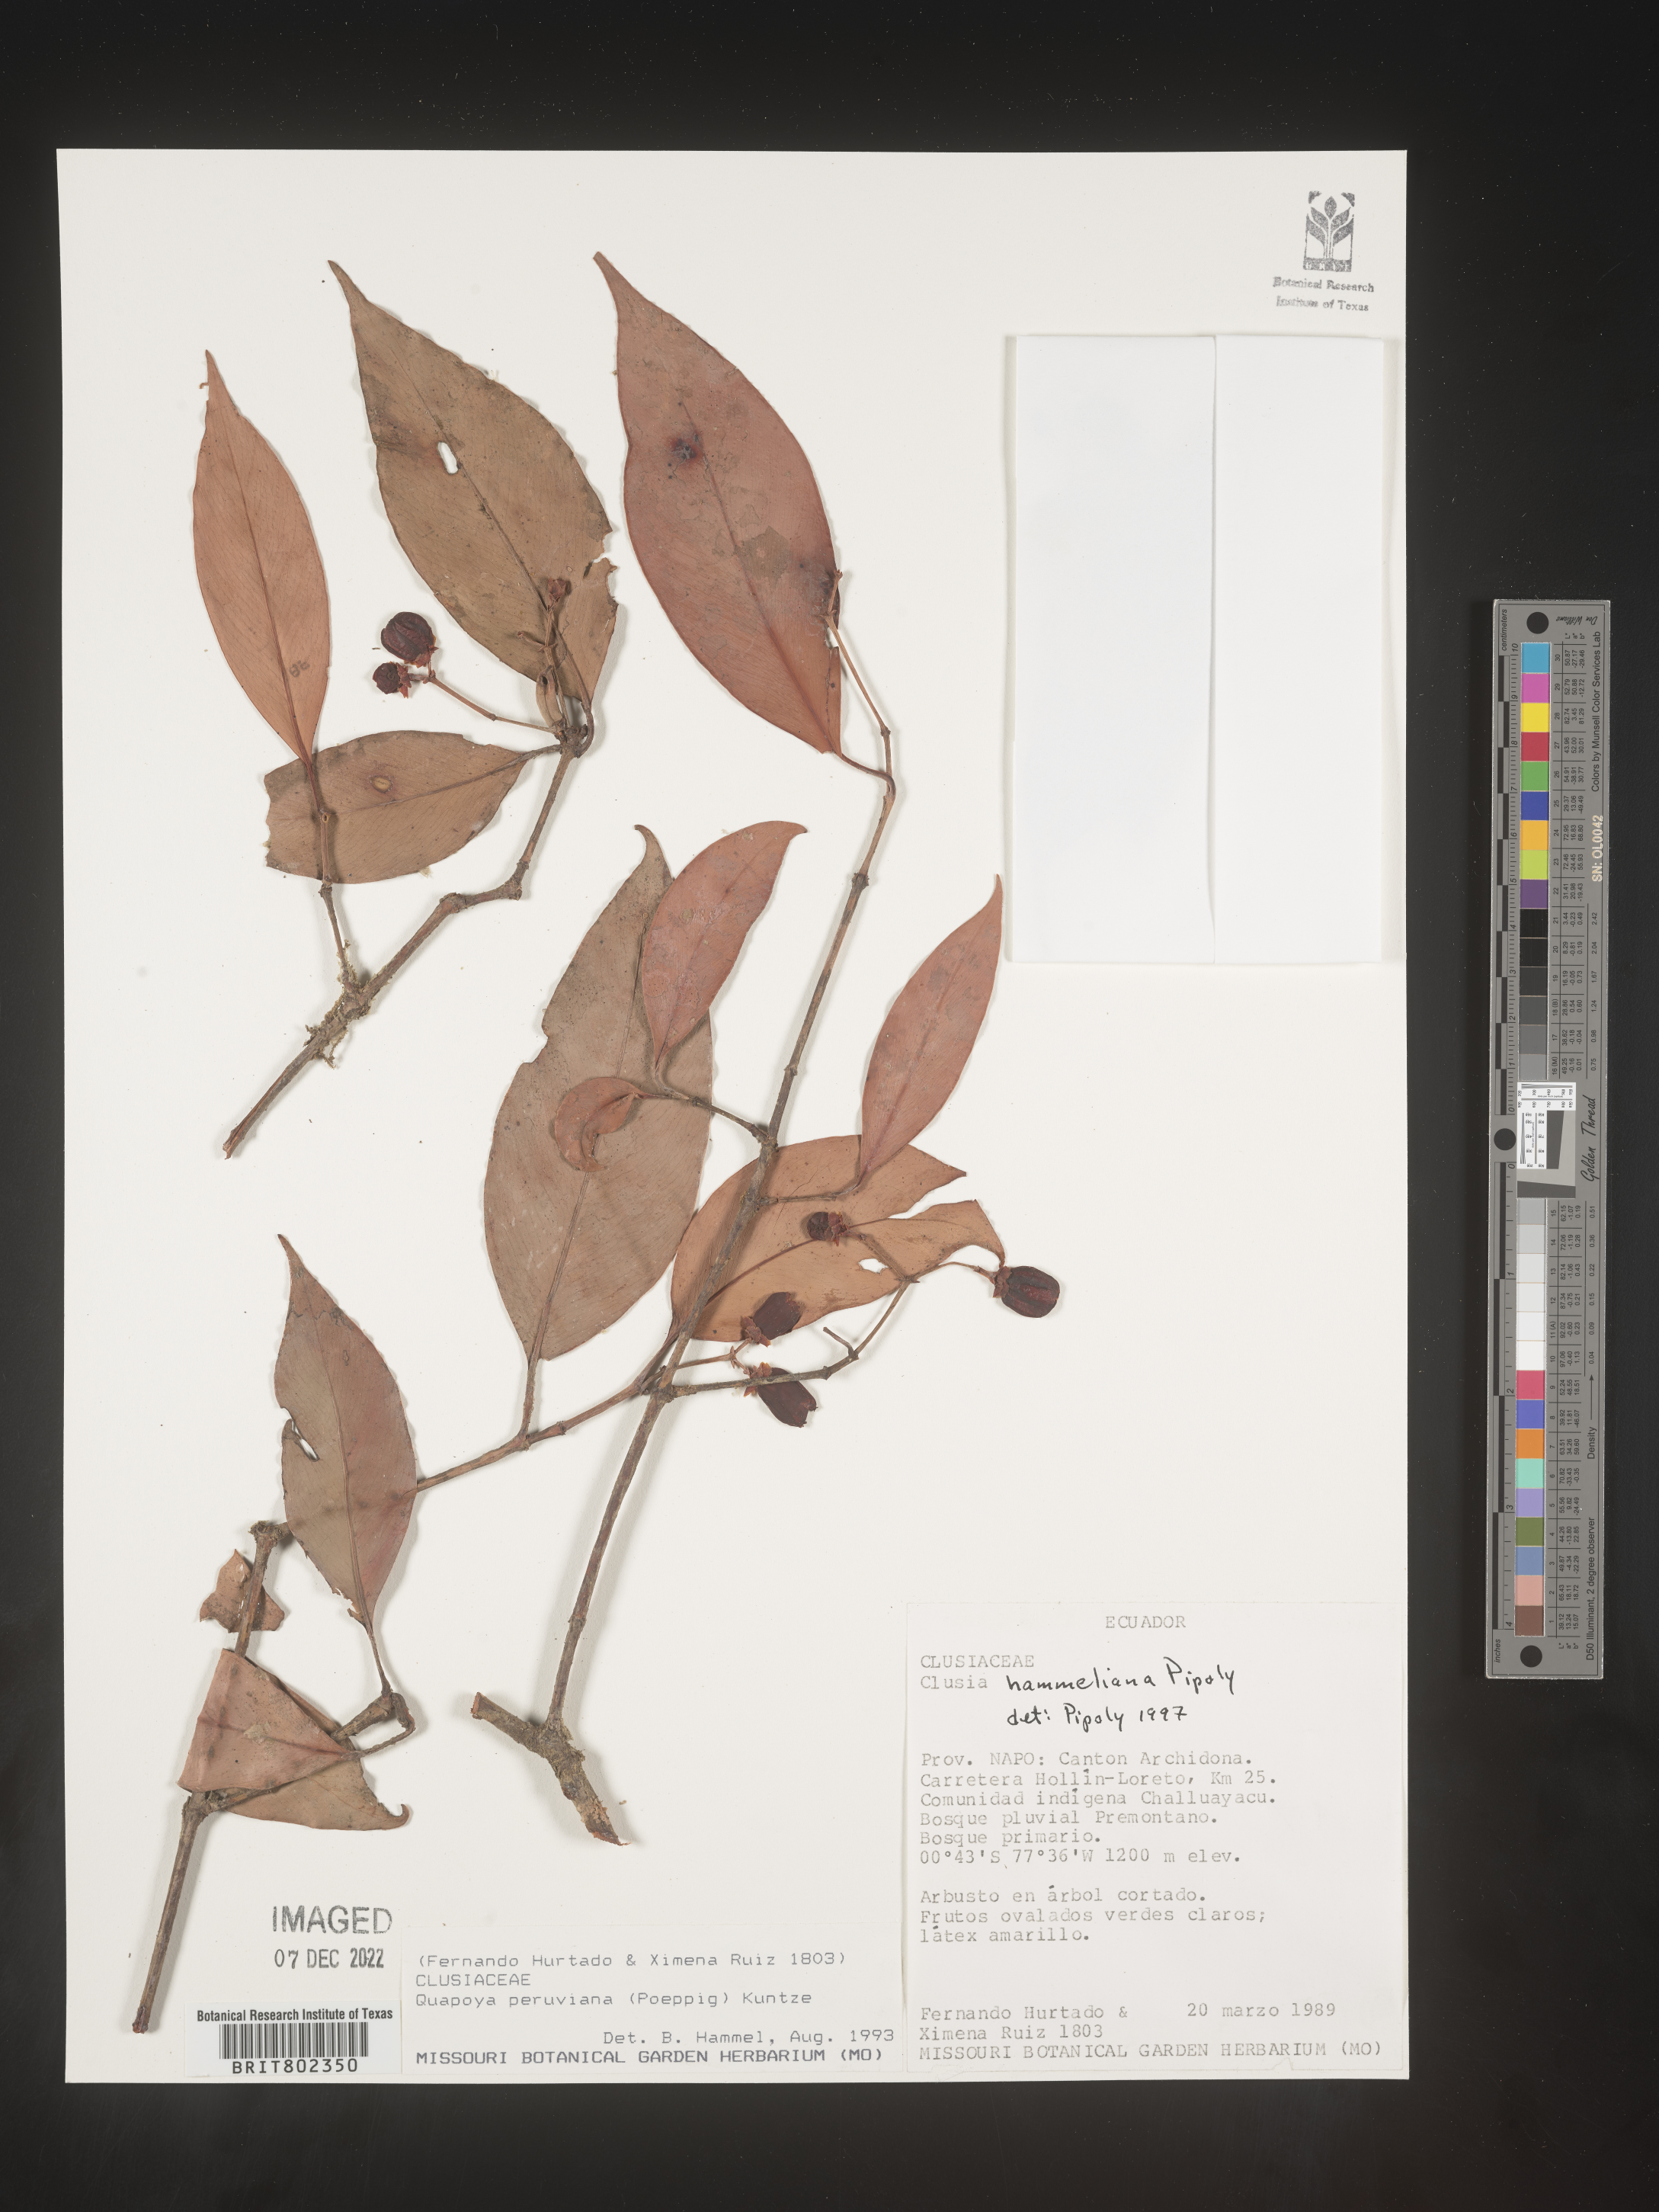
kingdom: Plantae
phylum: Tracheophyta
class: Magnoliopsida
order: Malpighiales
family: Clusiaceae
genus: Clusia
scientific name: Clusia hammeliana
